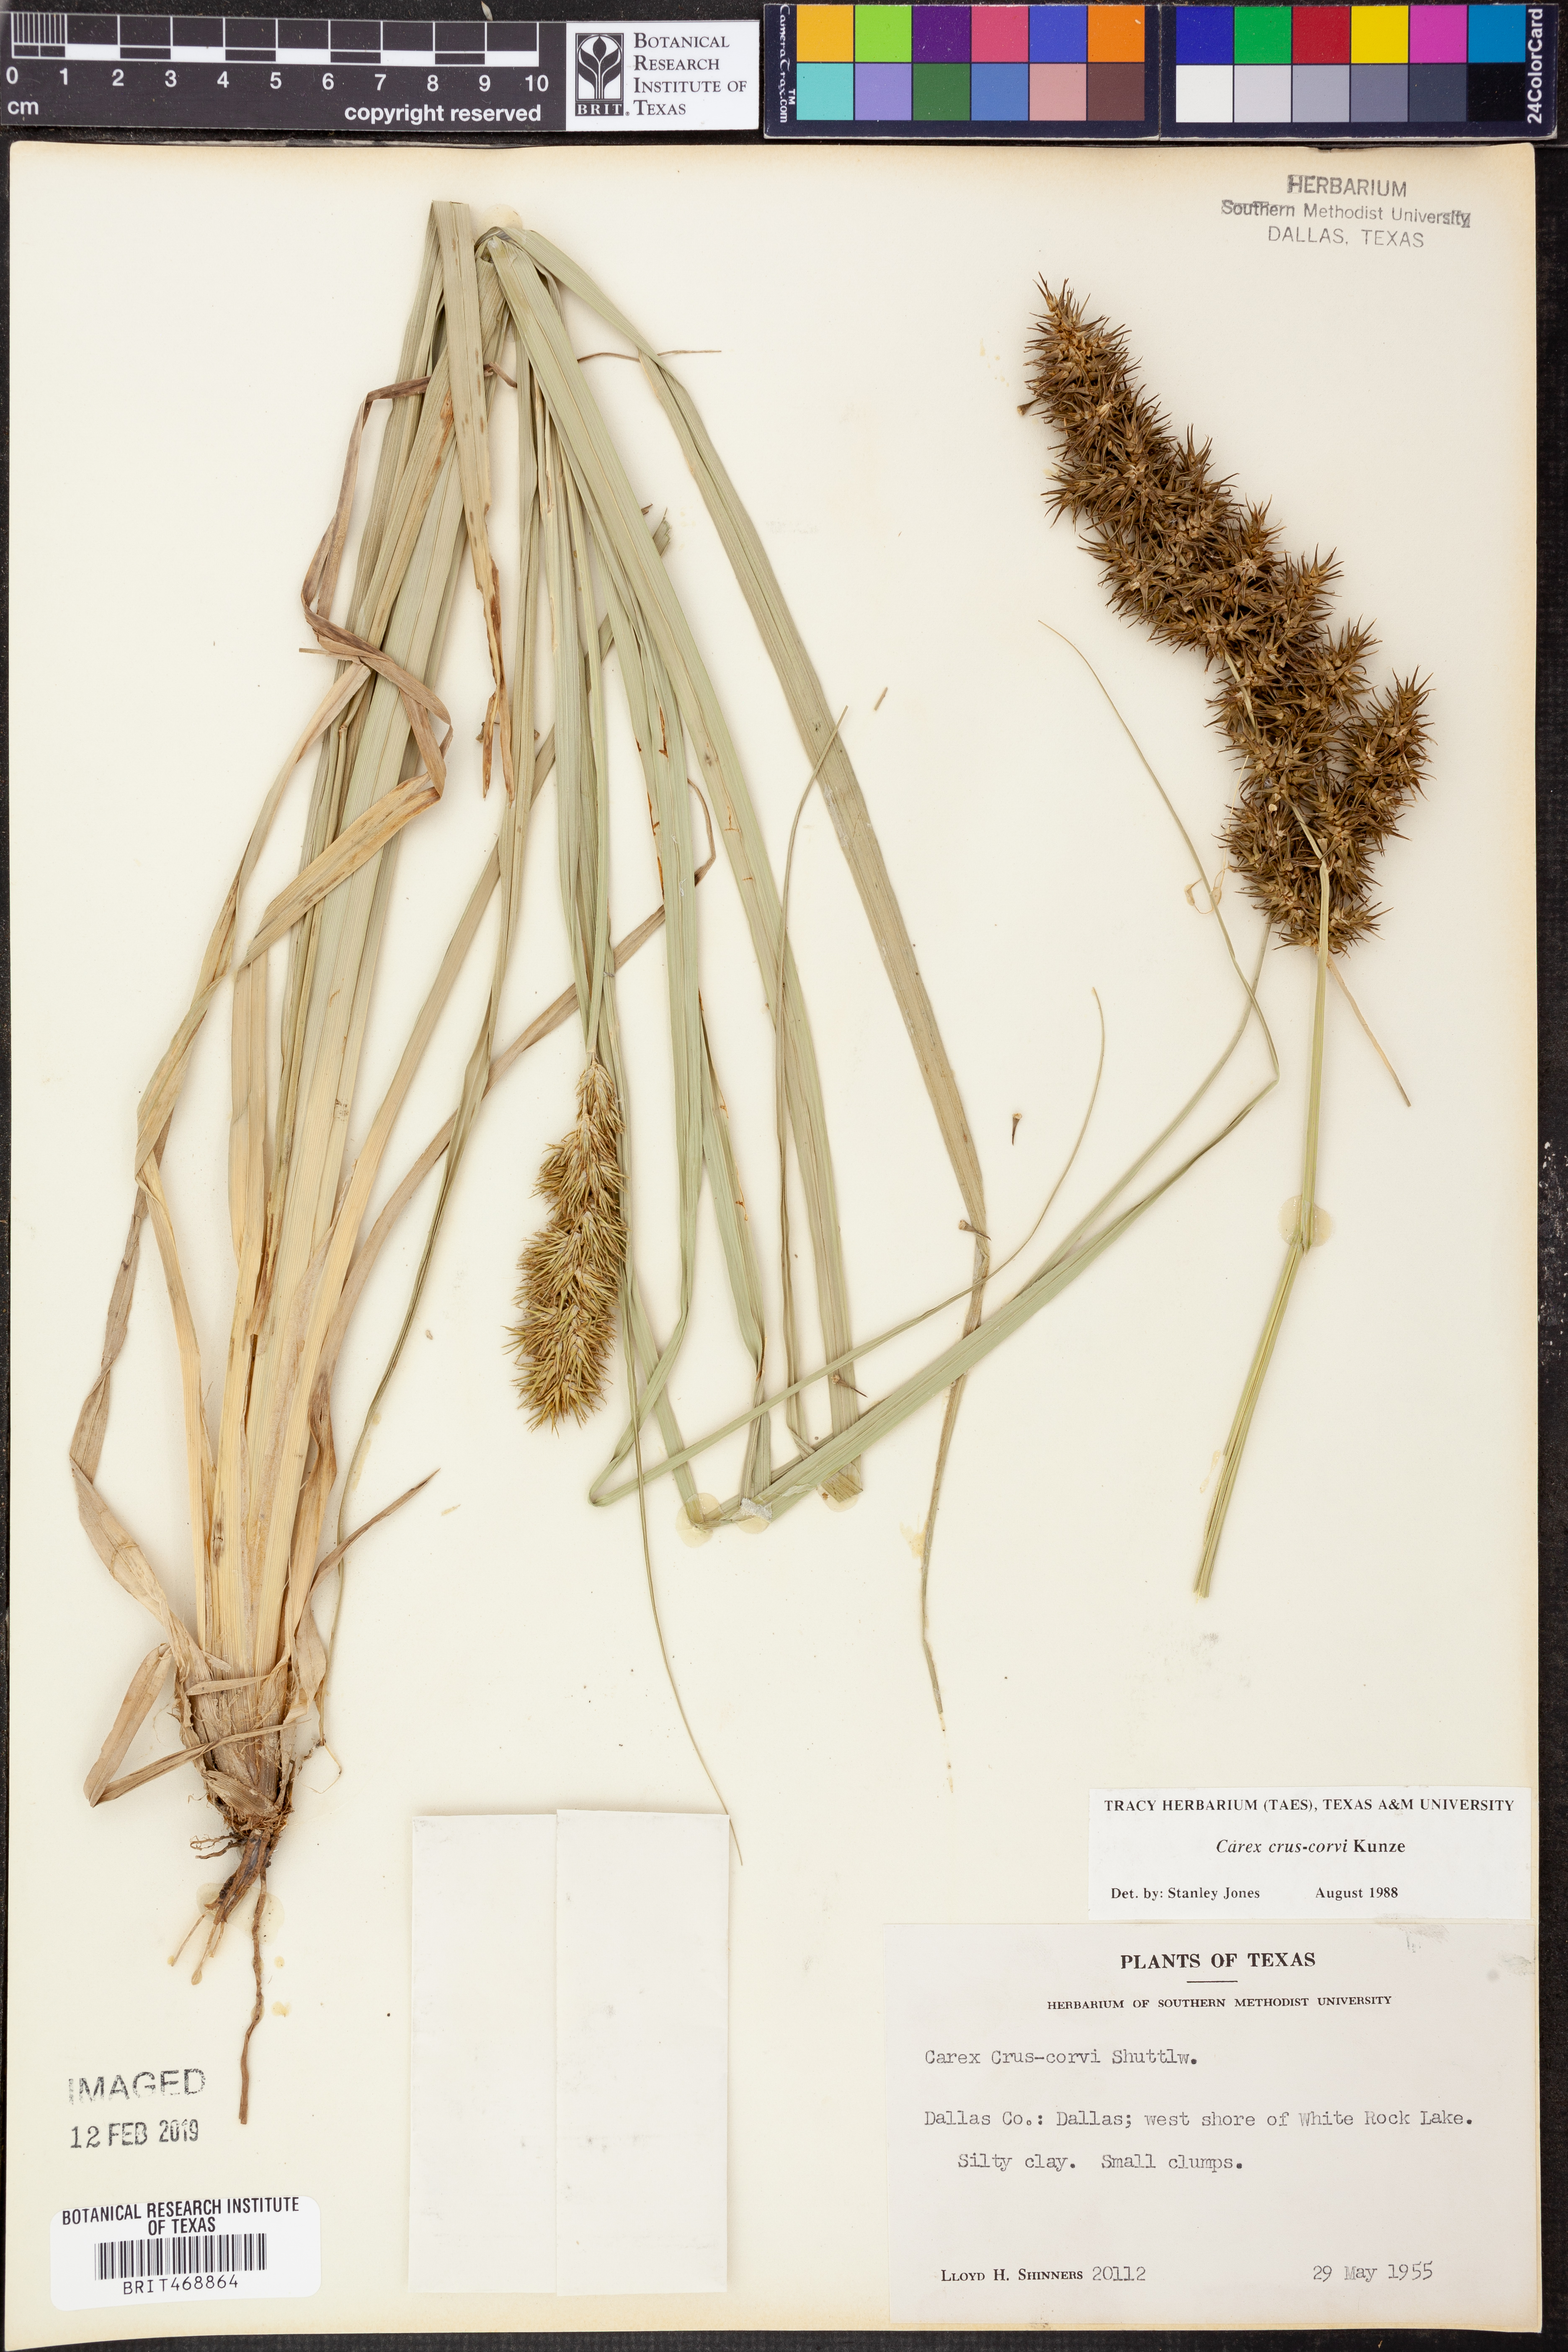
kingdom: Plantae
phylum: Tracheophyta
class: Liliopsida
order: Poales
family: Cyperaceae
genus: Carex
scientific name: Carex crus-corvi
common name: Crow-spur sedge
